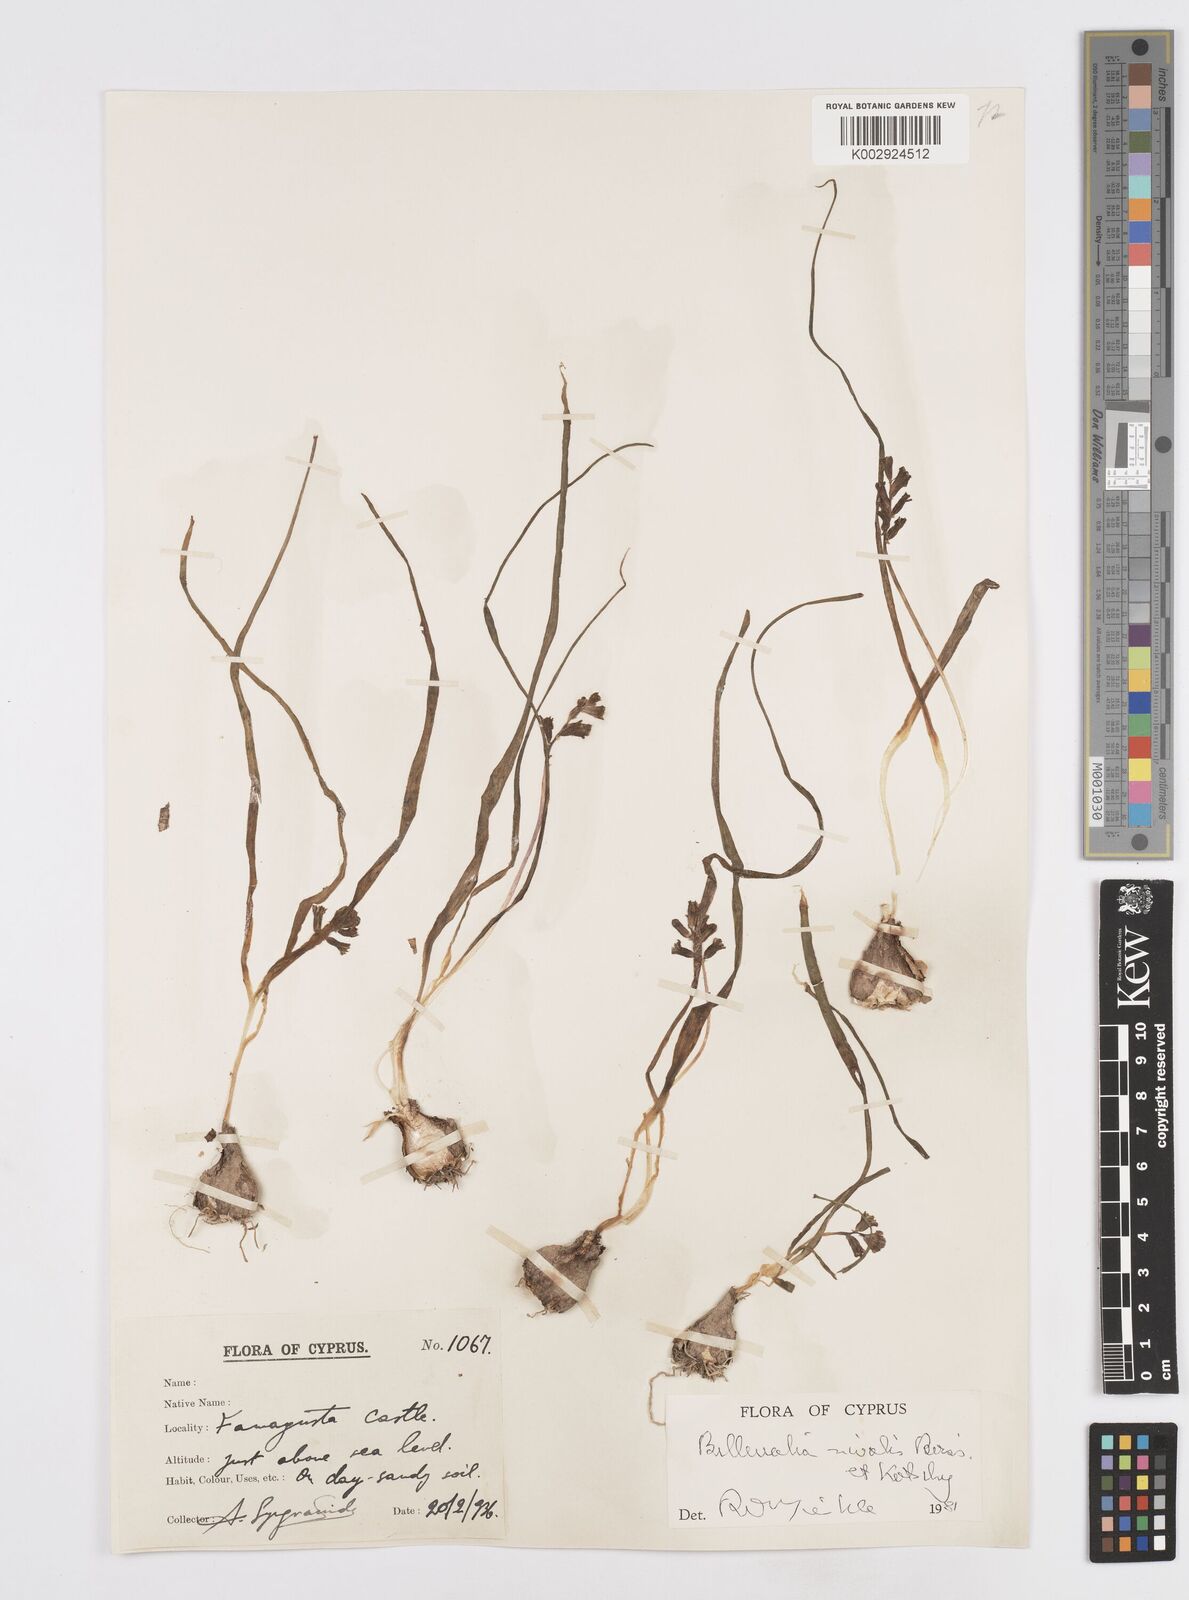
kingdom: Plantae
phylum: Tracheophyta
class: Liliopsida
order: Asparagales
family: Asparagaceae
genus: Bellevalia
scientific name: Bellevalia nivalis
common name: Snow bellevalia
